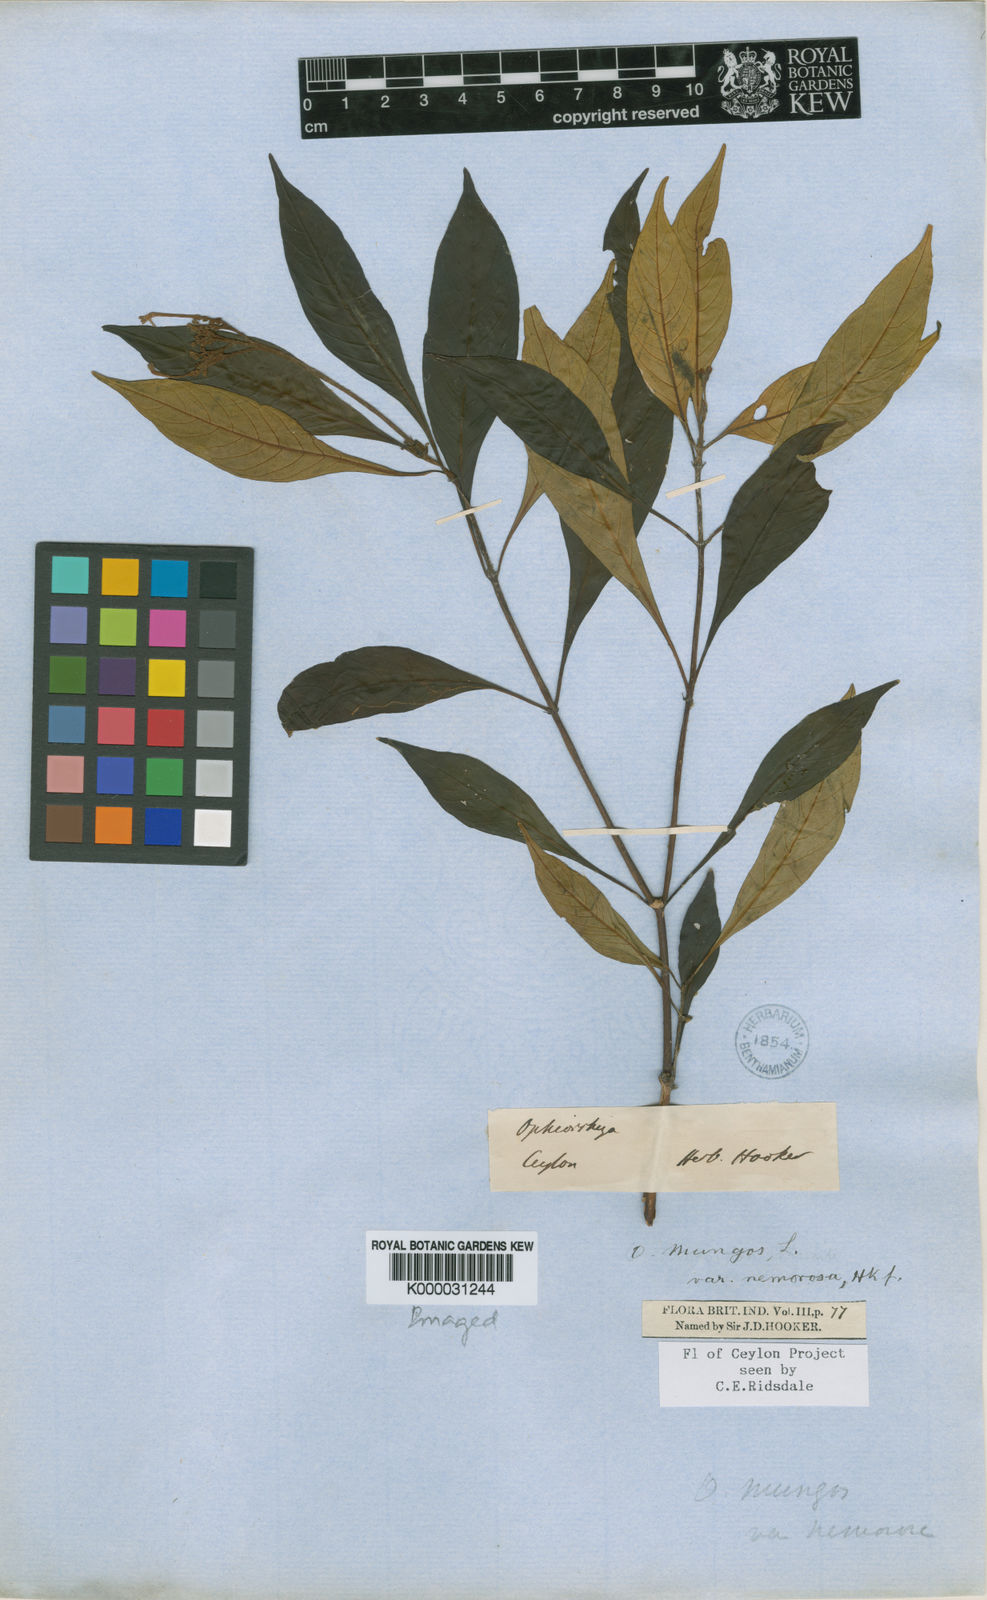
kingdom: Plantae
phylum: Tracheophyta
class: Magnoliopsida
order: Gentianales
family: Rubiaceae
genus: Ophiorrhiza
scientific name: Ophiorrhiza nemorosa
